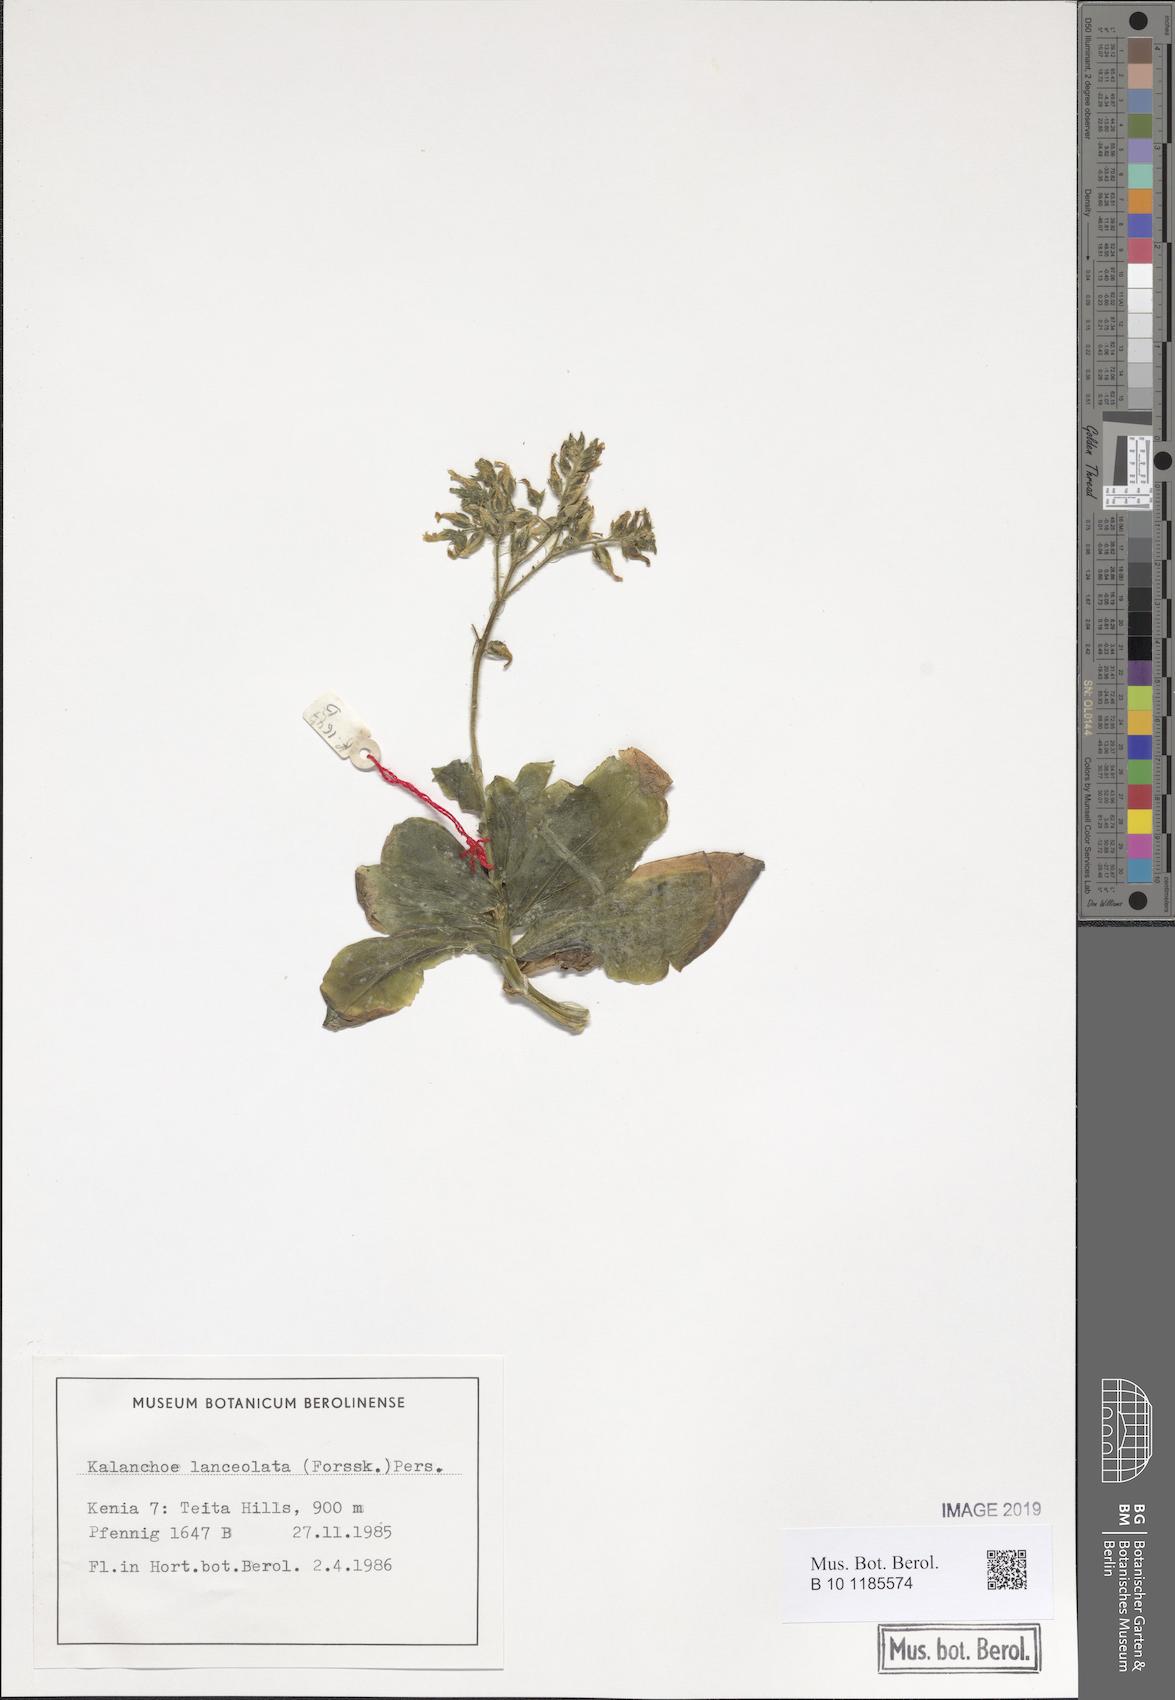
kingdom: Plantae
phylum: Tracheophyta
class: Magnoliopsida
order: Saxifragales
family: Crassulaceae
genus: Kalanchoe
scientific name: Kalanchoe lanceolata
